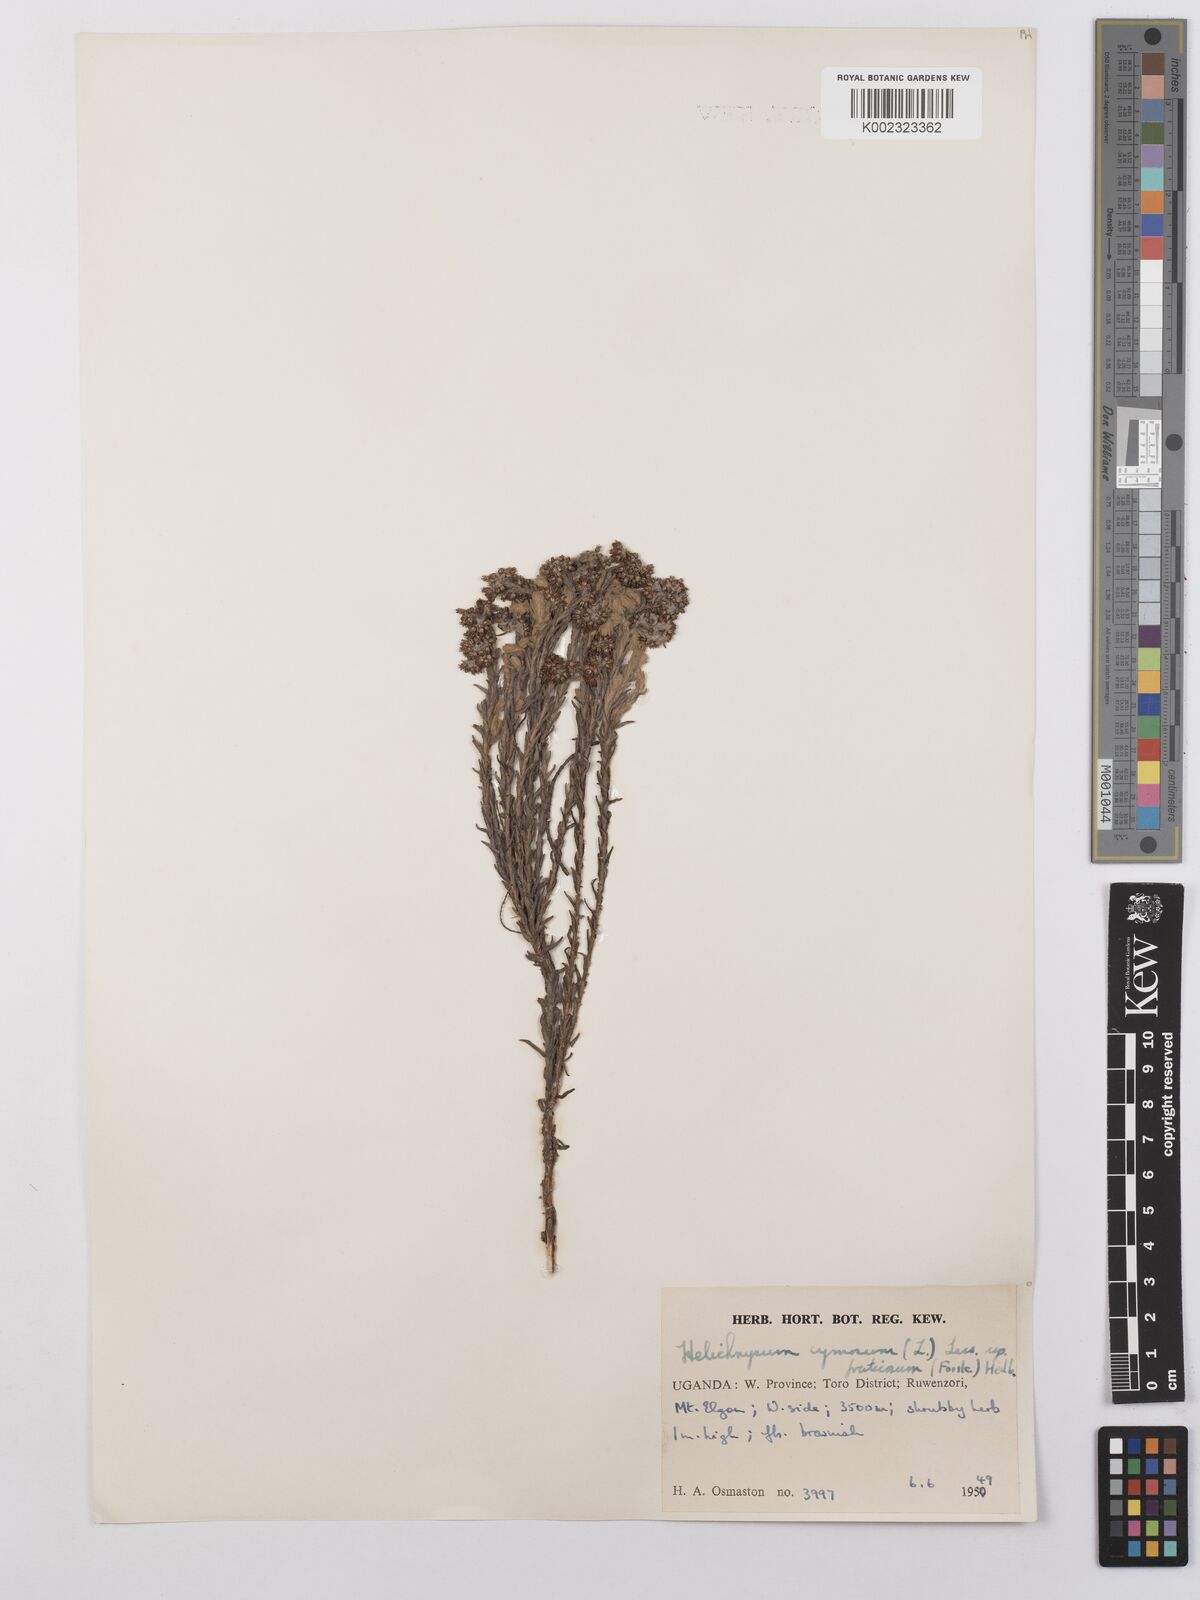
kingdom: Plantae
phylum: Tracheophyta
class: Magnoliopsida
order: Asterales
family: Asteraceae
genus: Helichrysum
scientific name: Helichrysum forskahlii
